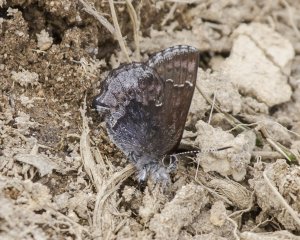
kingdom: Animalia
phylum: Arthropoda
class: Insecta
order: Lepidoptera
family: Lycaenidae
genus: Callophrys
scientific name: Callophrys polios
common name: Hoary Elfin
